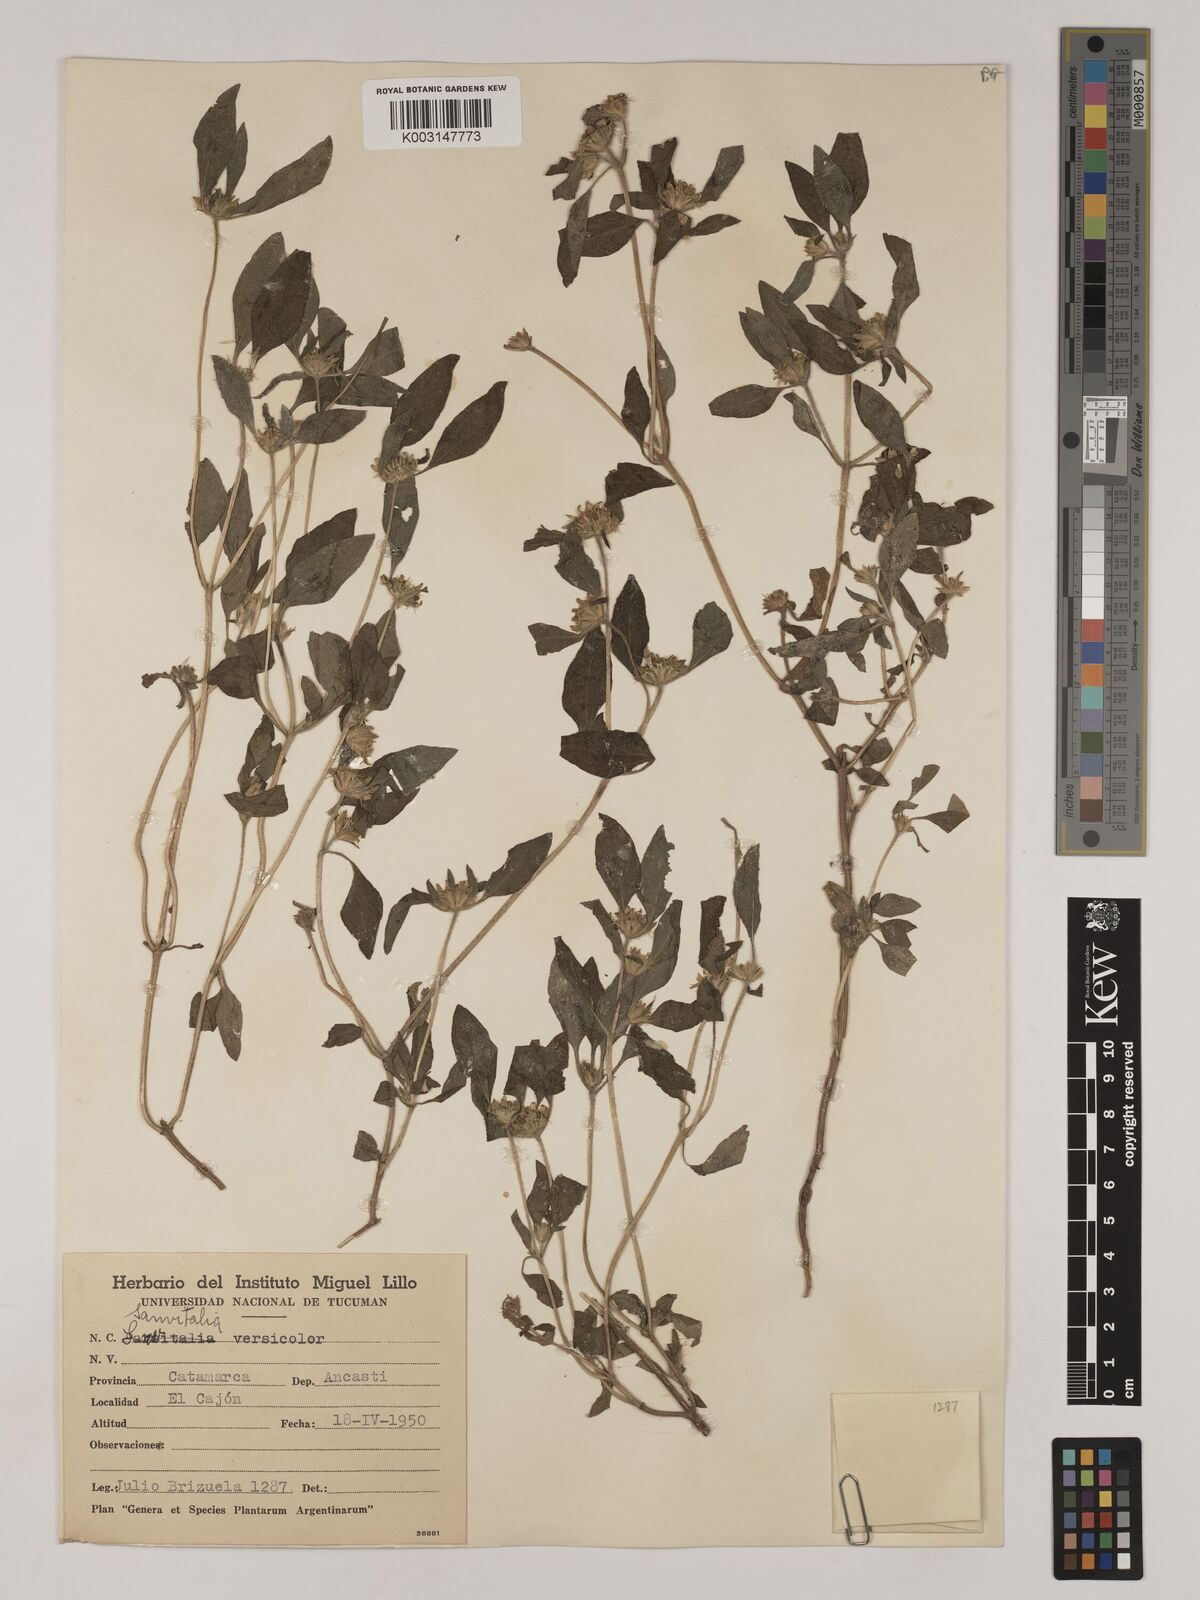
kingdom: Plantae
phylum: Tracheophyta
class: Magnoliopsida
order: Asterales
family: Asteraceae
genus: Sanvitalia
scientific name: Sanvitalia versicolor
